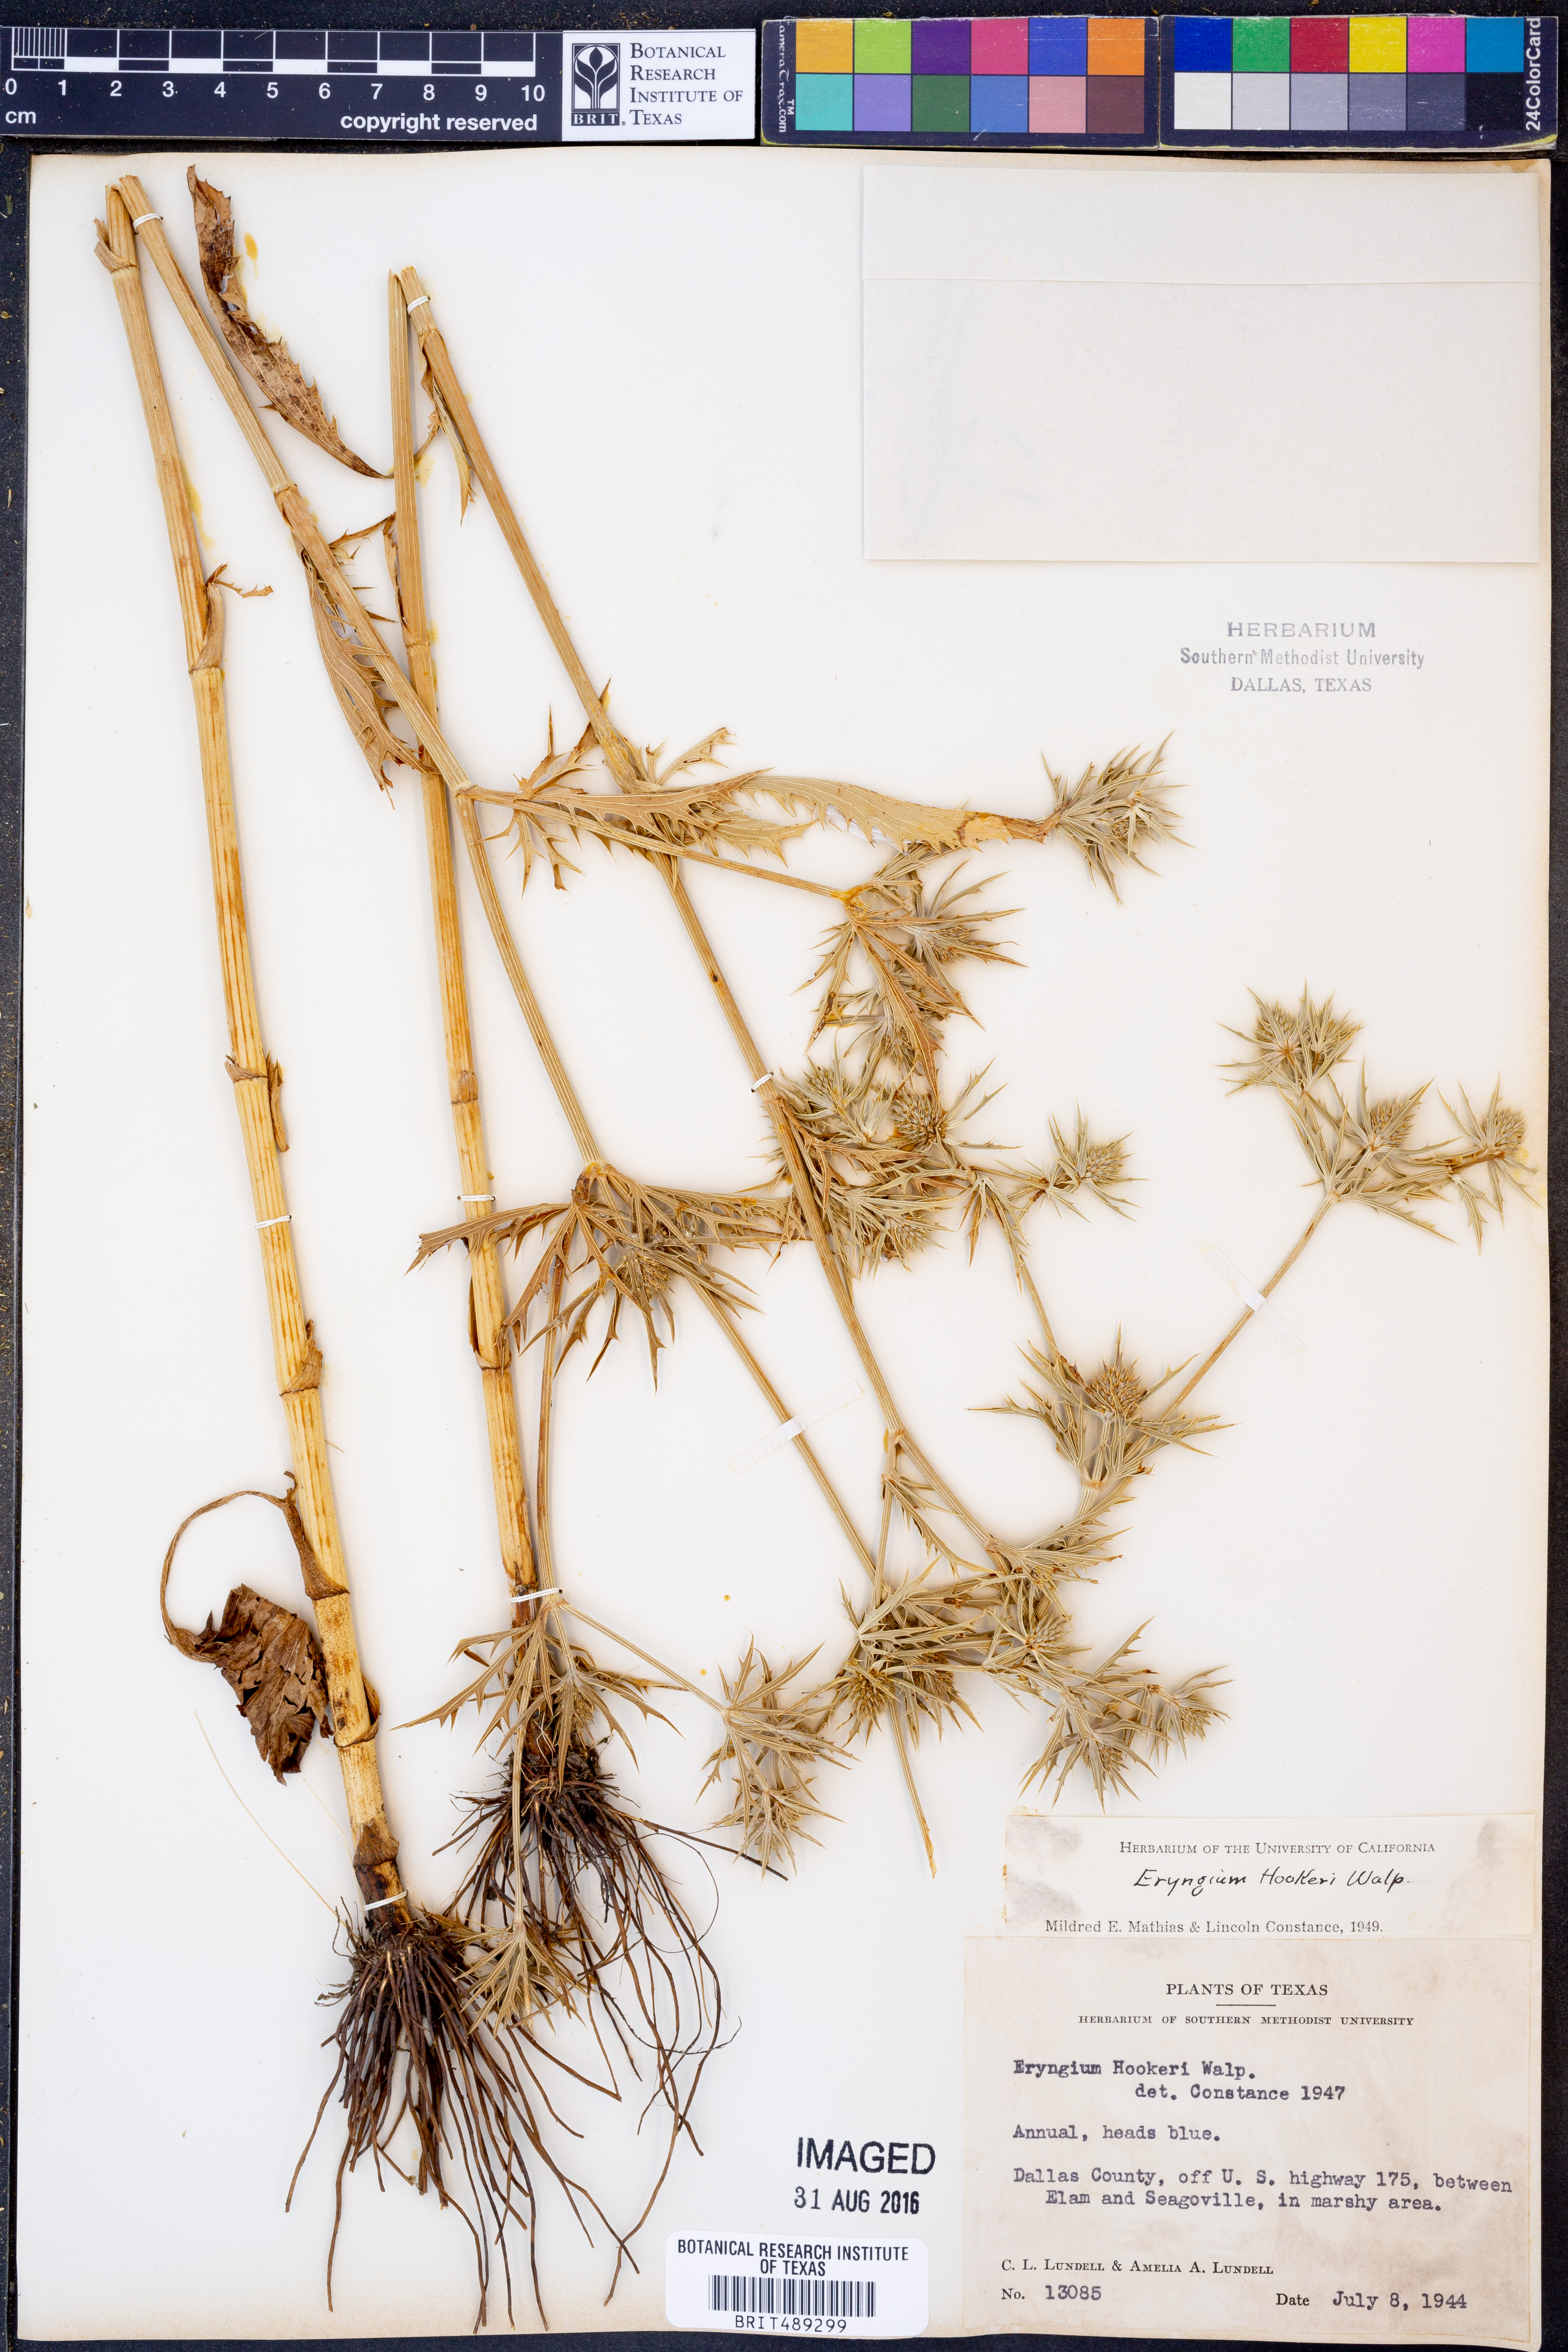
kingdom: Plantae
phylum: Tracheophyta
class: Magnoliopsida
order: Apiales
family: Apiaceae
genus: Eryngium
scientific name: Eryngium hookeri
